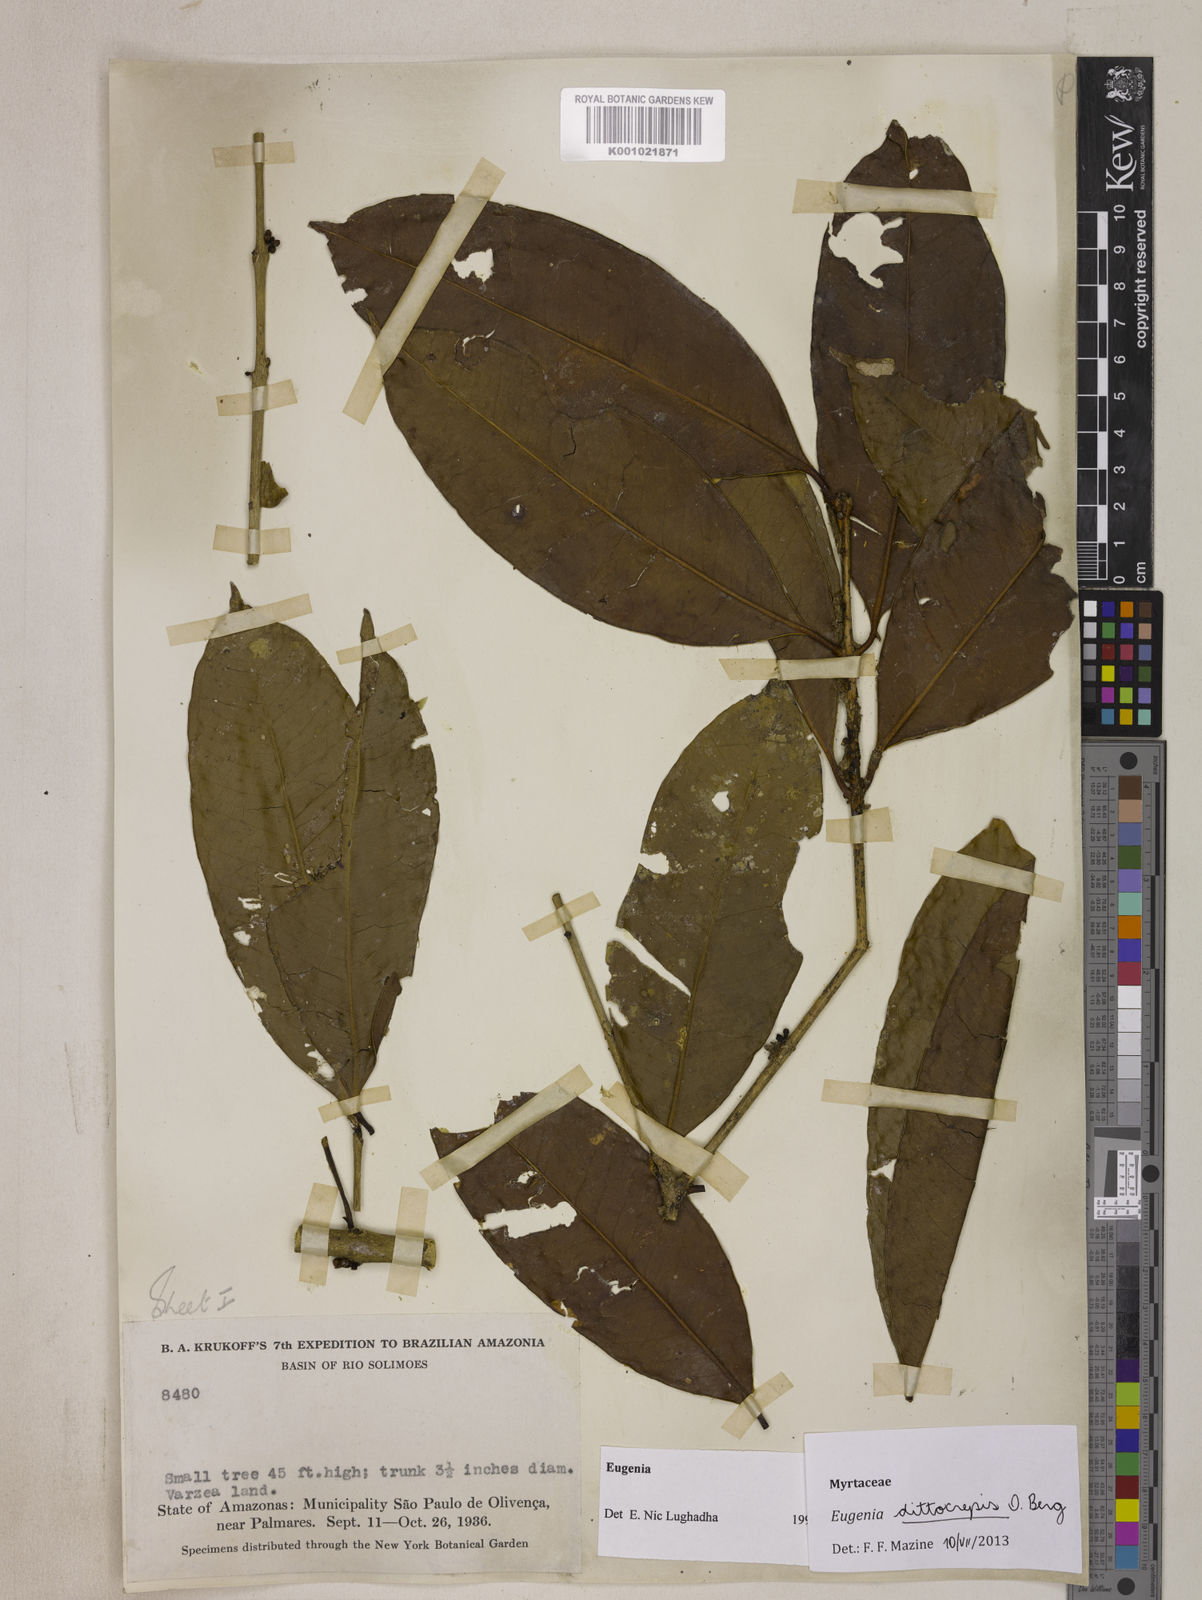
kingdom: Plantae
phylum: Tracheophyta
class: Magnoliopsida
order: Myrtales
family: Myrtaceae
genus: Eugenia
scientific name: Eugenia dittocrepis
